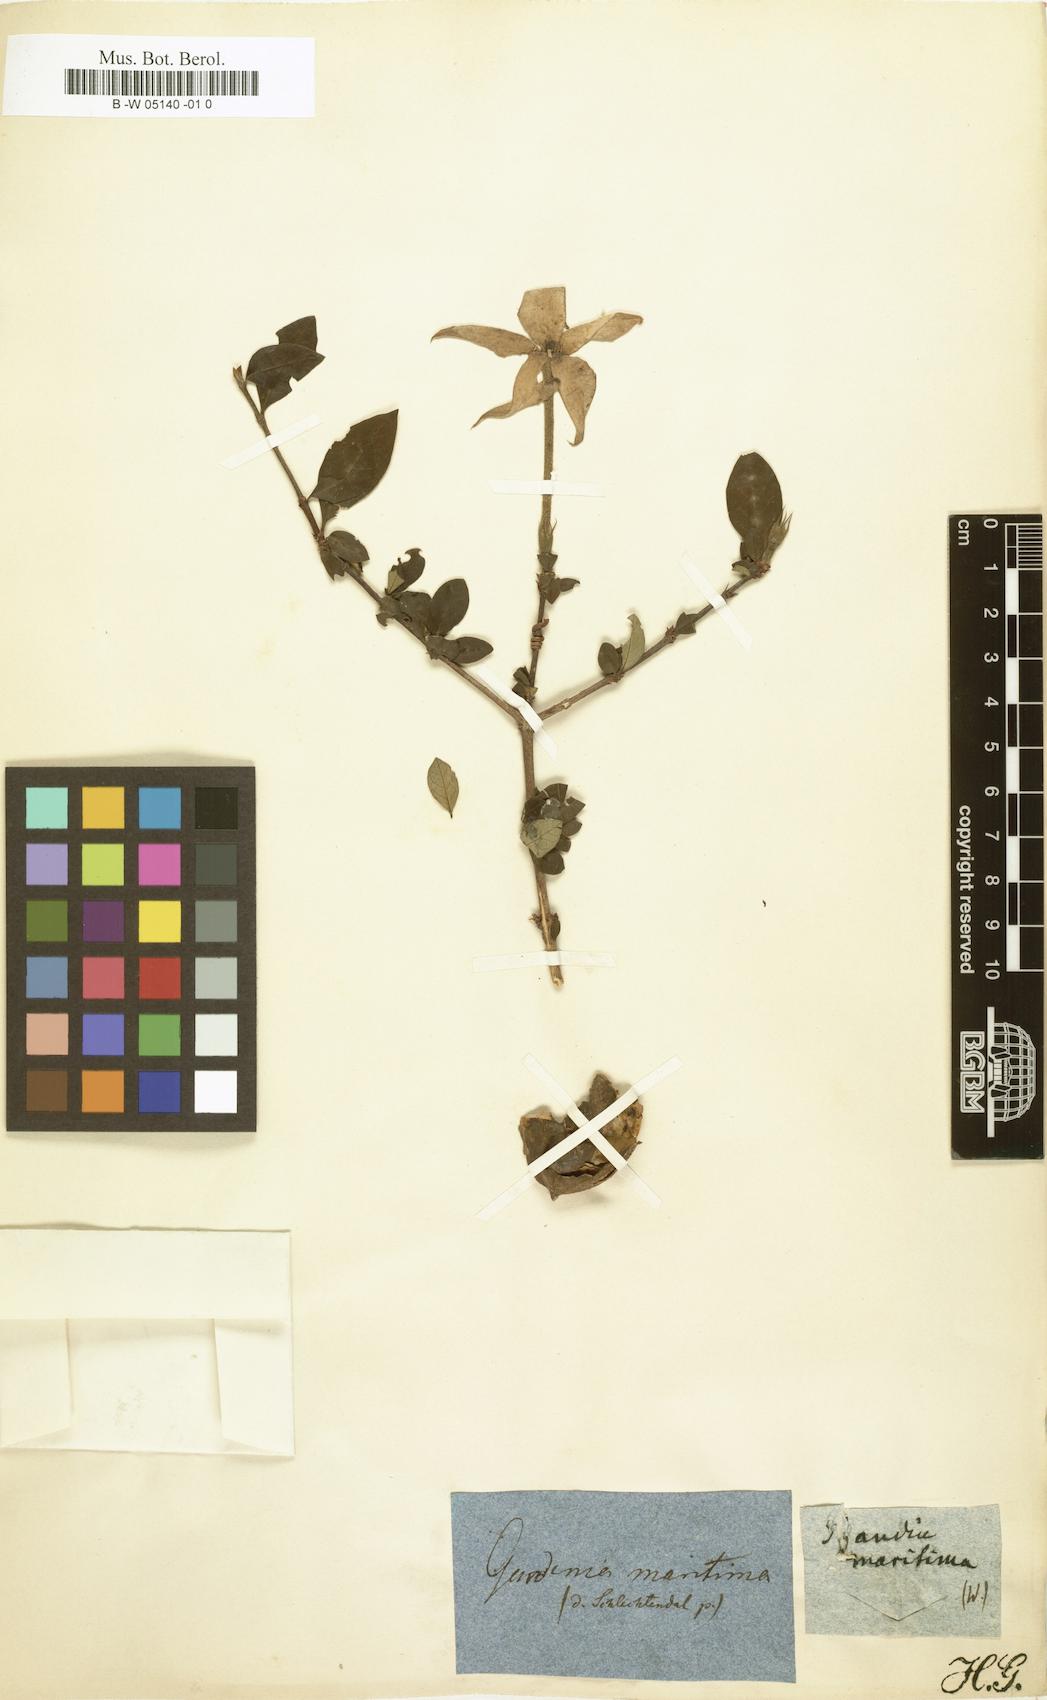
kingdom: Plantae
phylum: Tracheophyta
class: Magnoliopsida
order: Gentianales
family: Rubiaceae
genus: Tocoyena
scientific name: Tocoyena formosa
